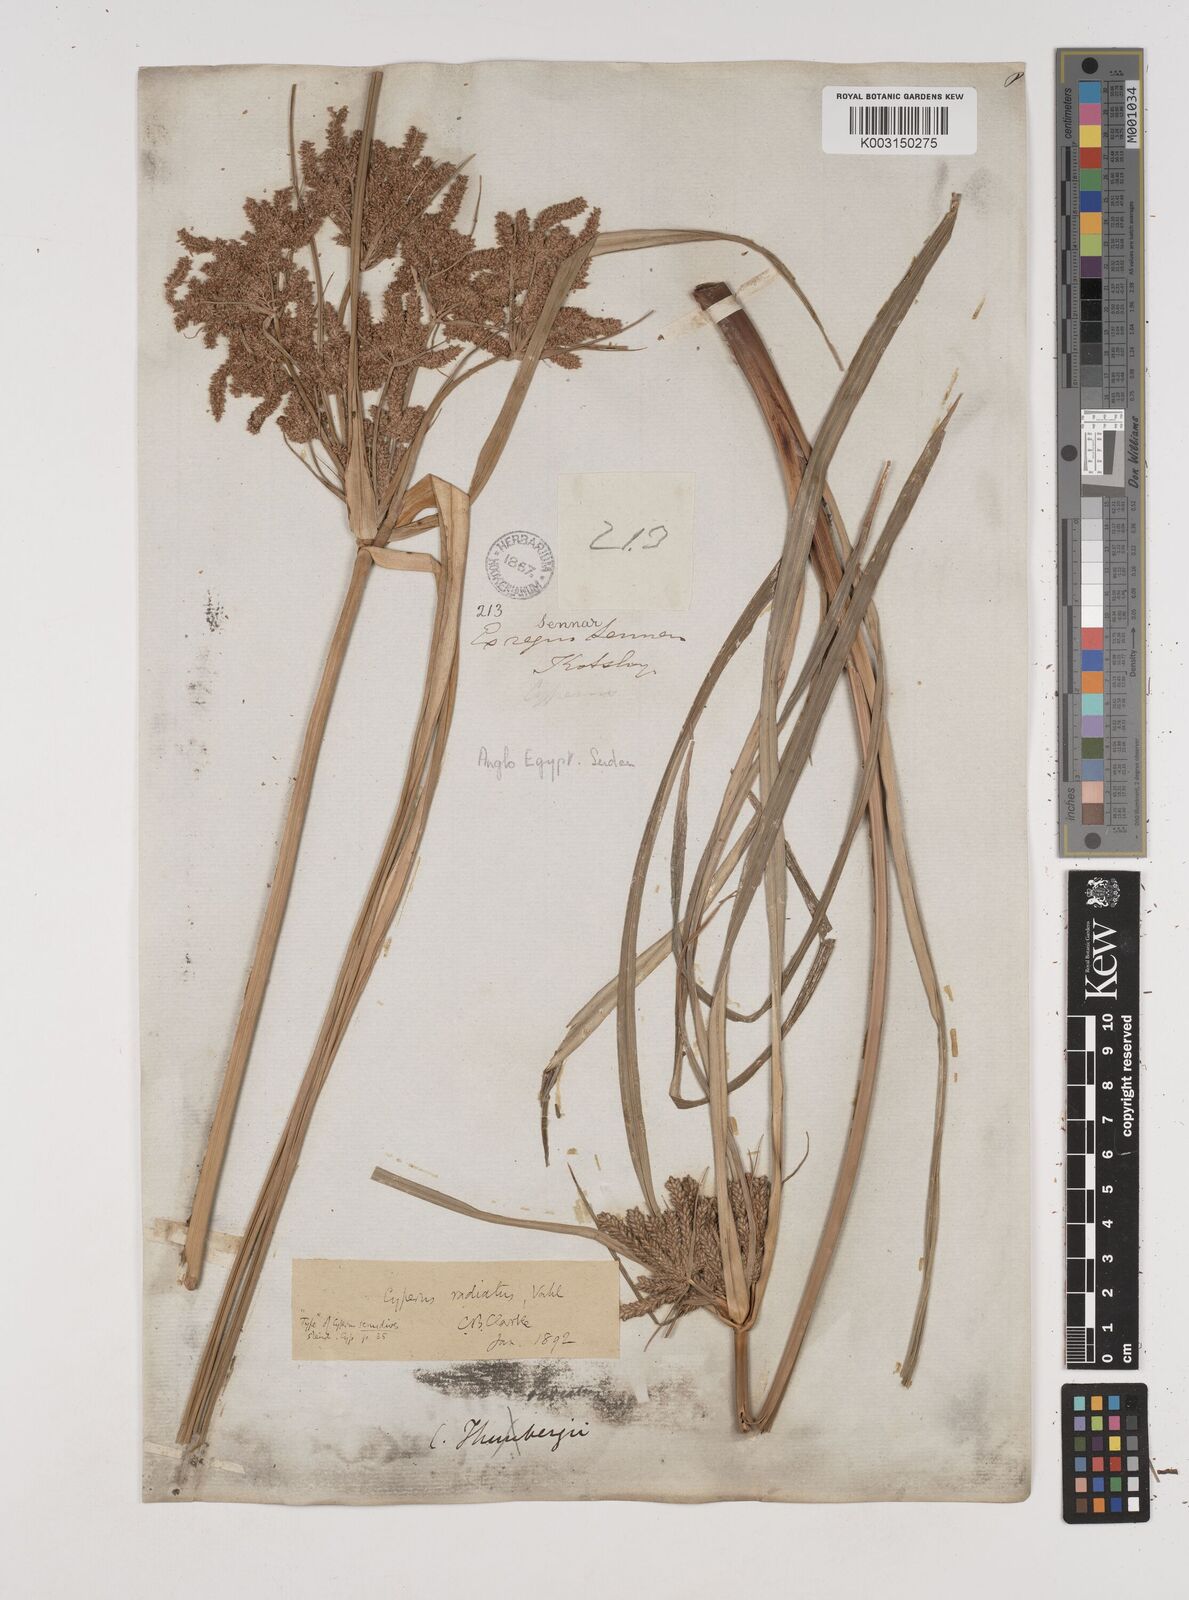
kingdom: Plantae
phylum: Tracheophyta
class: Liliopsida
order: Poales
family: Cyperaceae
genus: Cyperus
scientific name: Cyperus alopecuroides
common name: Foxtail flatsedge
